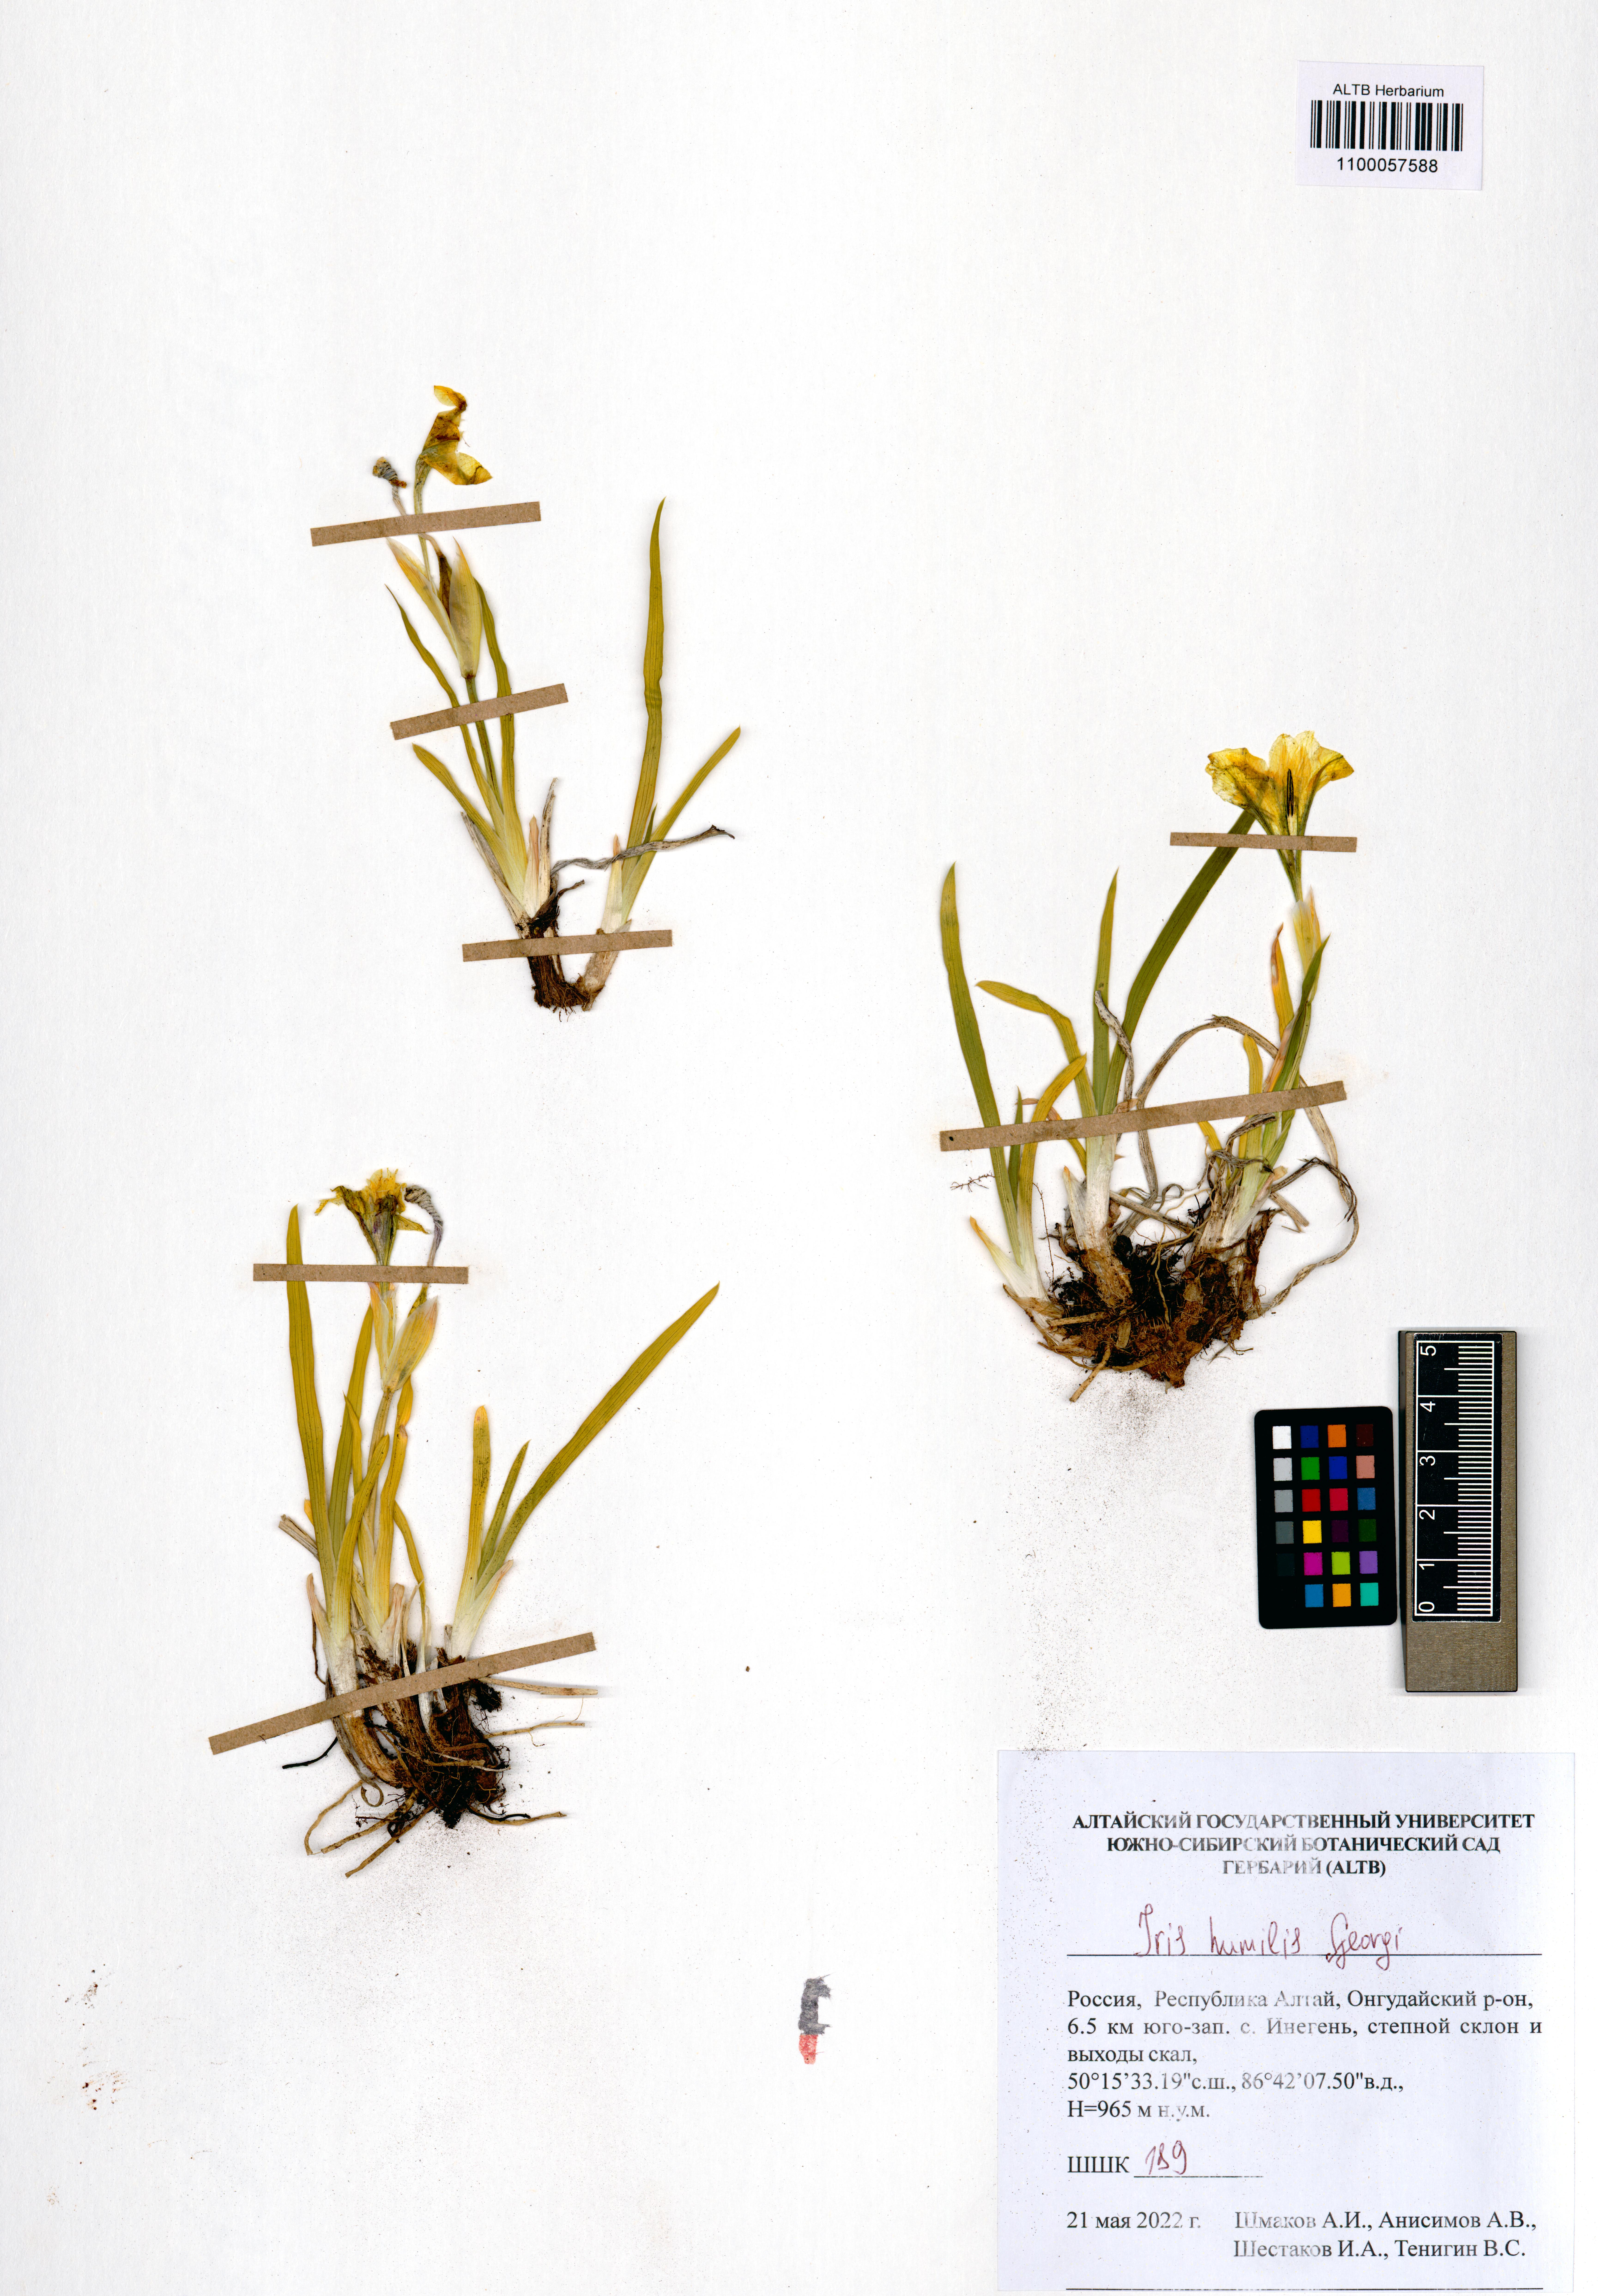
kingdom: Plantae
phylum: Tracheophyta
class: Liliopsida
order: Asparagales
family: Iridaceae
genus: Iris
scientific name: Iris humilis
